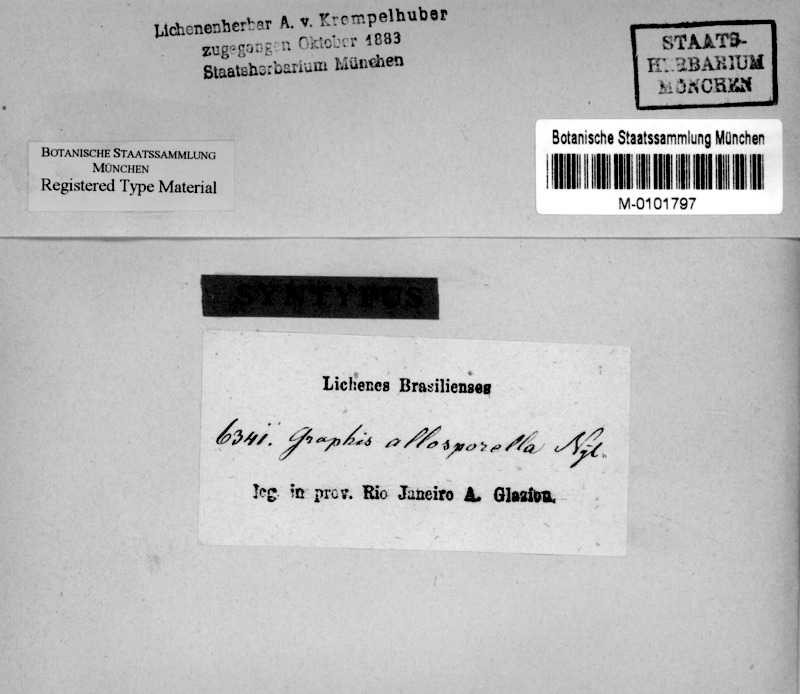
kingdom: Fungi
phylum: Ascomycota
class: Lecanoromycetes
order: Ostropales
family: Graphidaceae
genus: Platythecium
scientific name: Platythecium allosporellum
